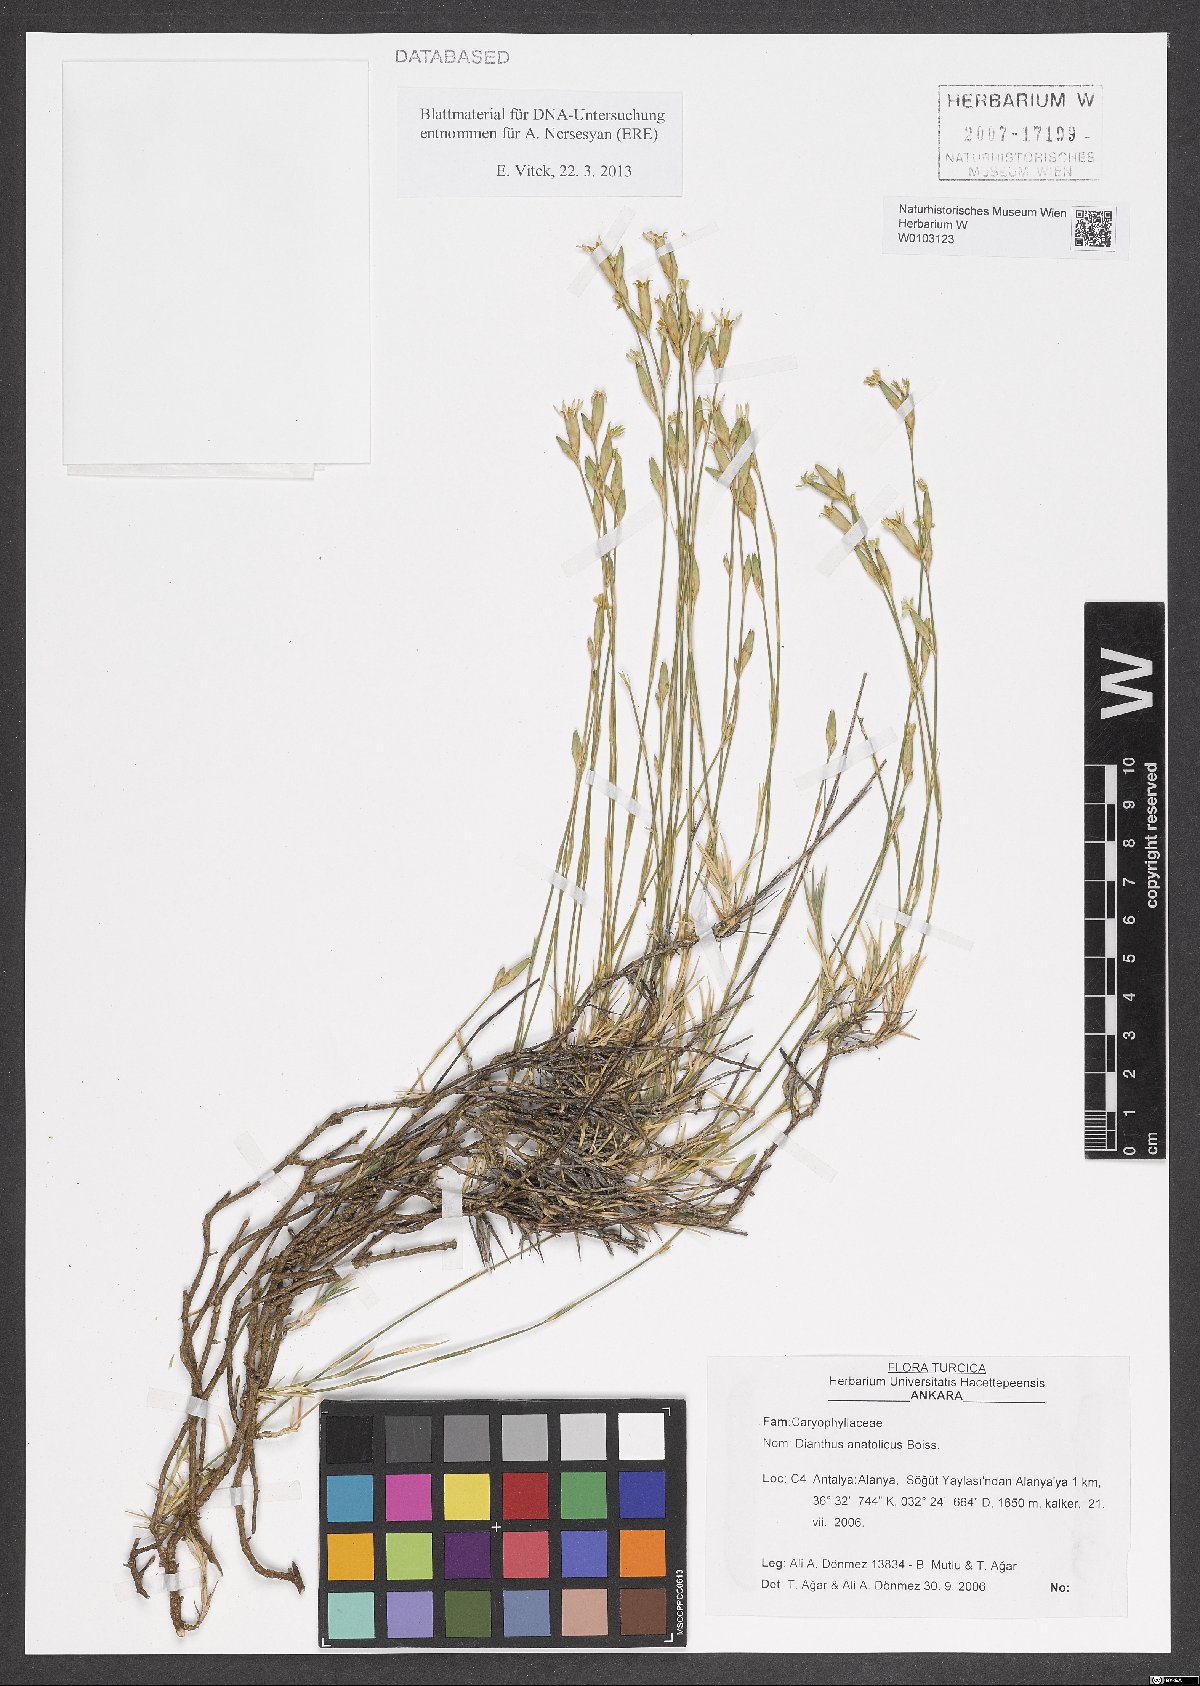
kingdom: Plantae
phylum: Tracheophyta
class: Magnoliopsida
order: Caryophyllales
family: Caryophyllaceae
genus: Dianthus
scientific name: Dianthus anatolicus
